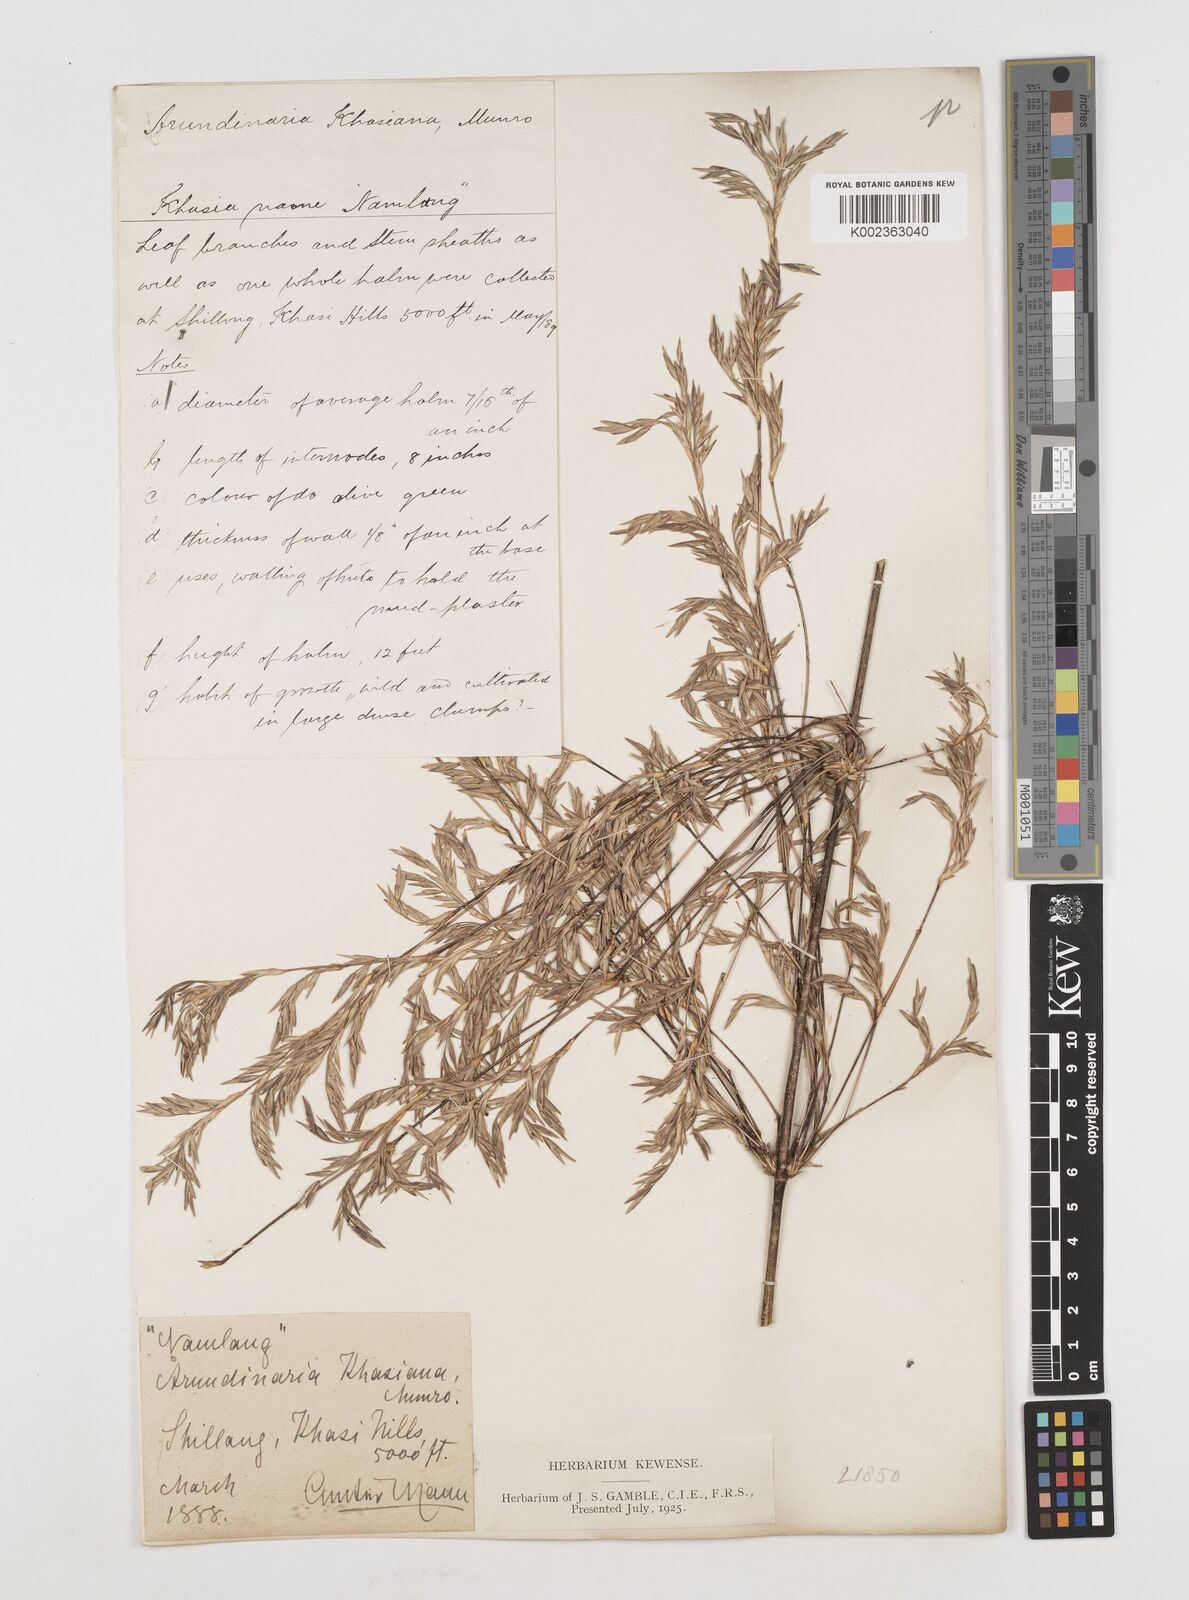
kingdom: Plantae
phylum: Tracheophyta
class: Liliopsida
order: Poales
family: Poaceae
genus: Drepanostachyum
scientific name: Drepanostachyum khasianum
